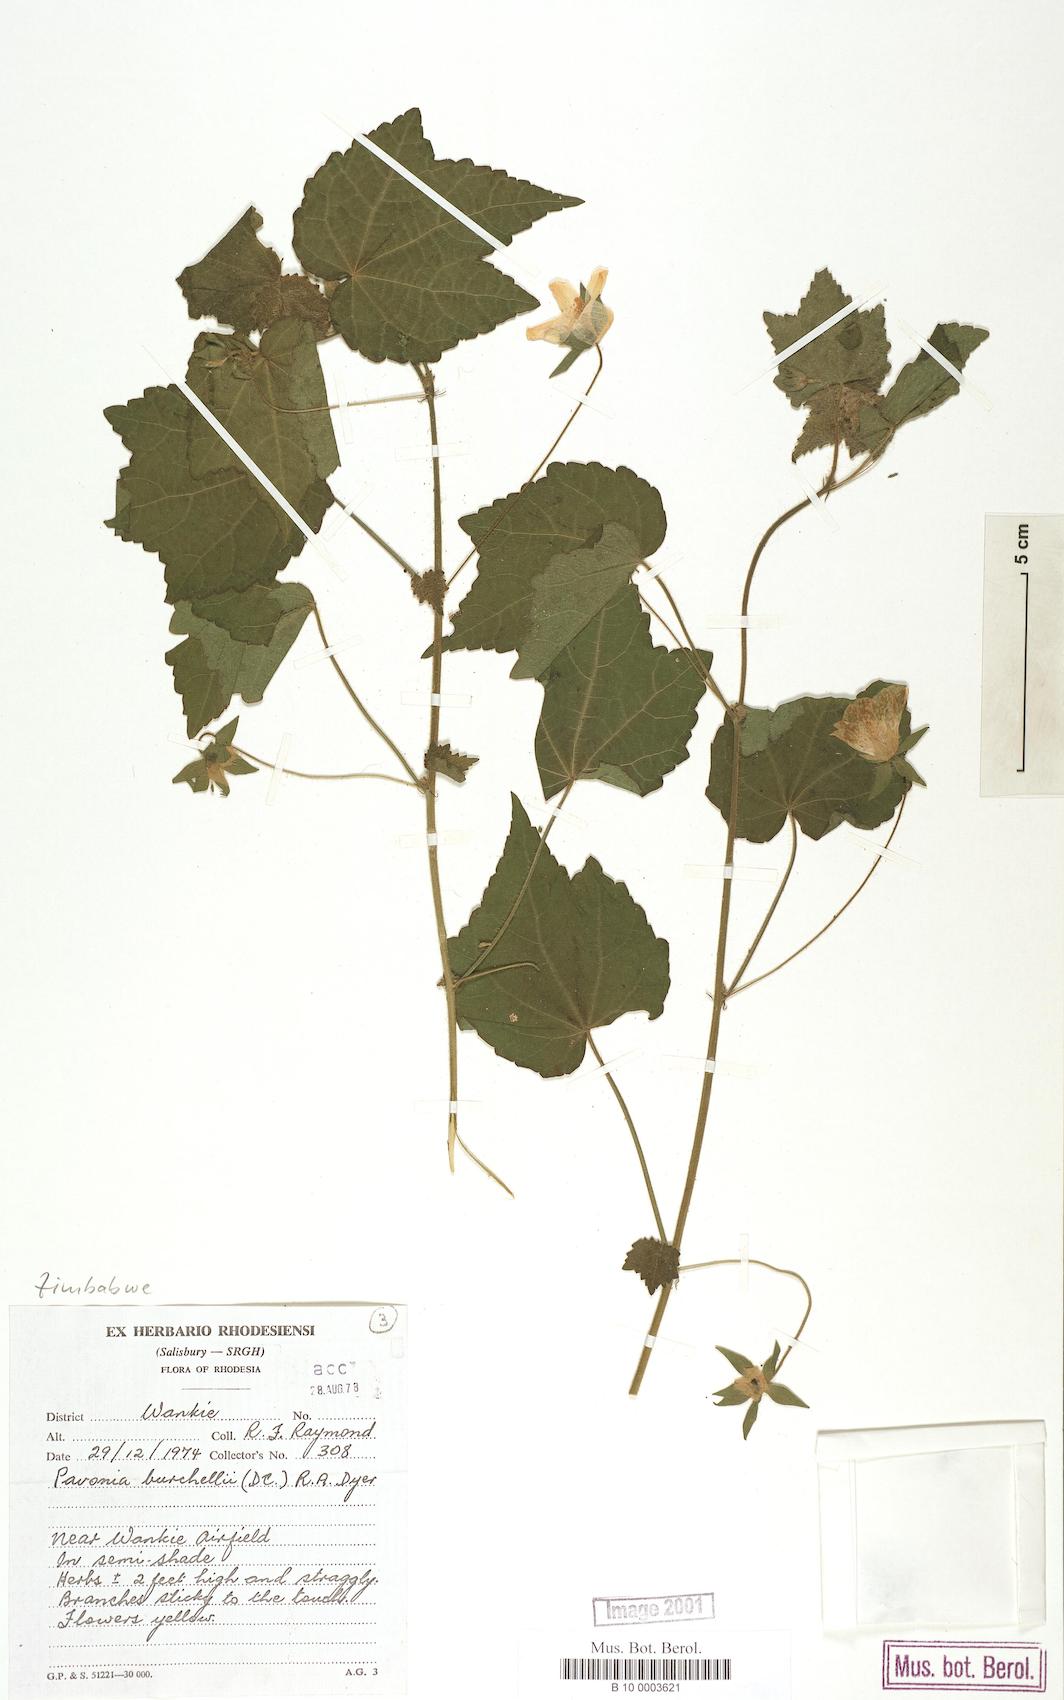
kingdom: Plantae
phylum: Tracheophyta
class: Magnoliopsida
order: Malvales
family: Malvaceae
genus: Pavonia
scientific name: Pavonia burchellii
